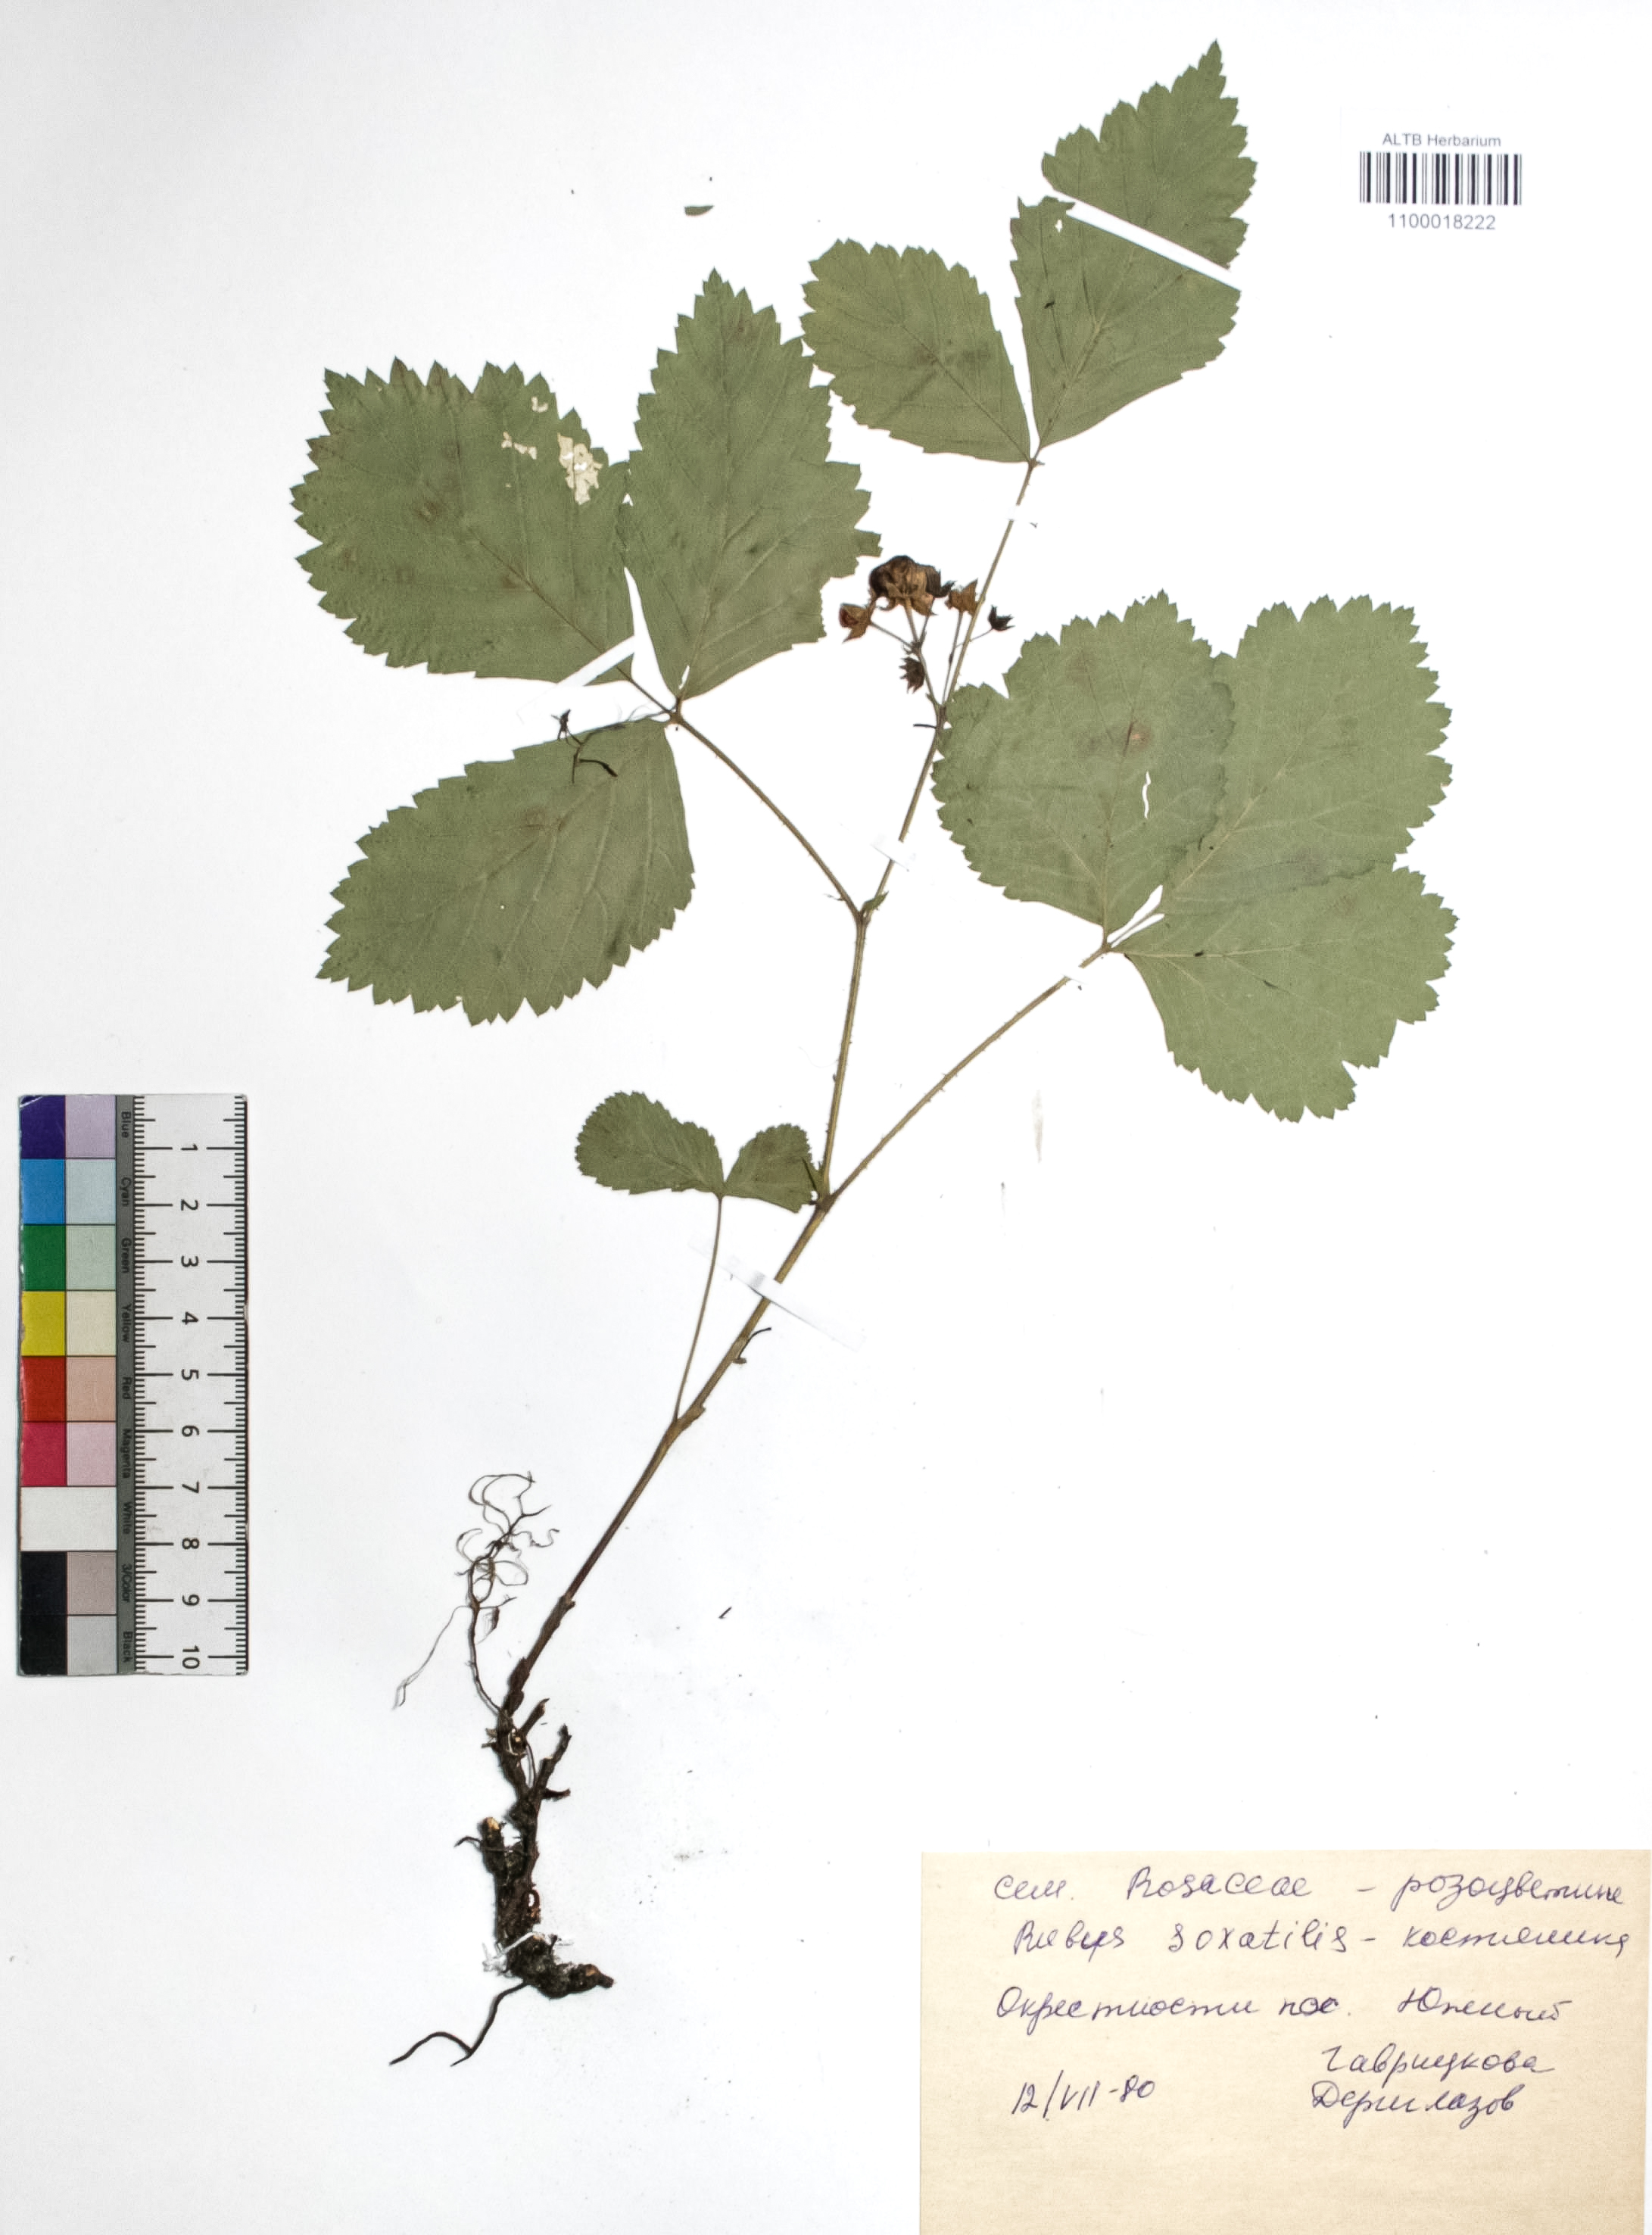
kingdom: Plantae
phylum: Tracheophyta
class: Magnoliopsida
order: Rosales
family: Rosaceae
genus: Rubus
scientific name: Rubus saxatilis
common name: Stone bramble
